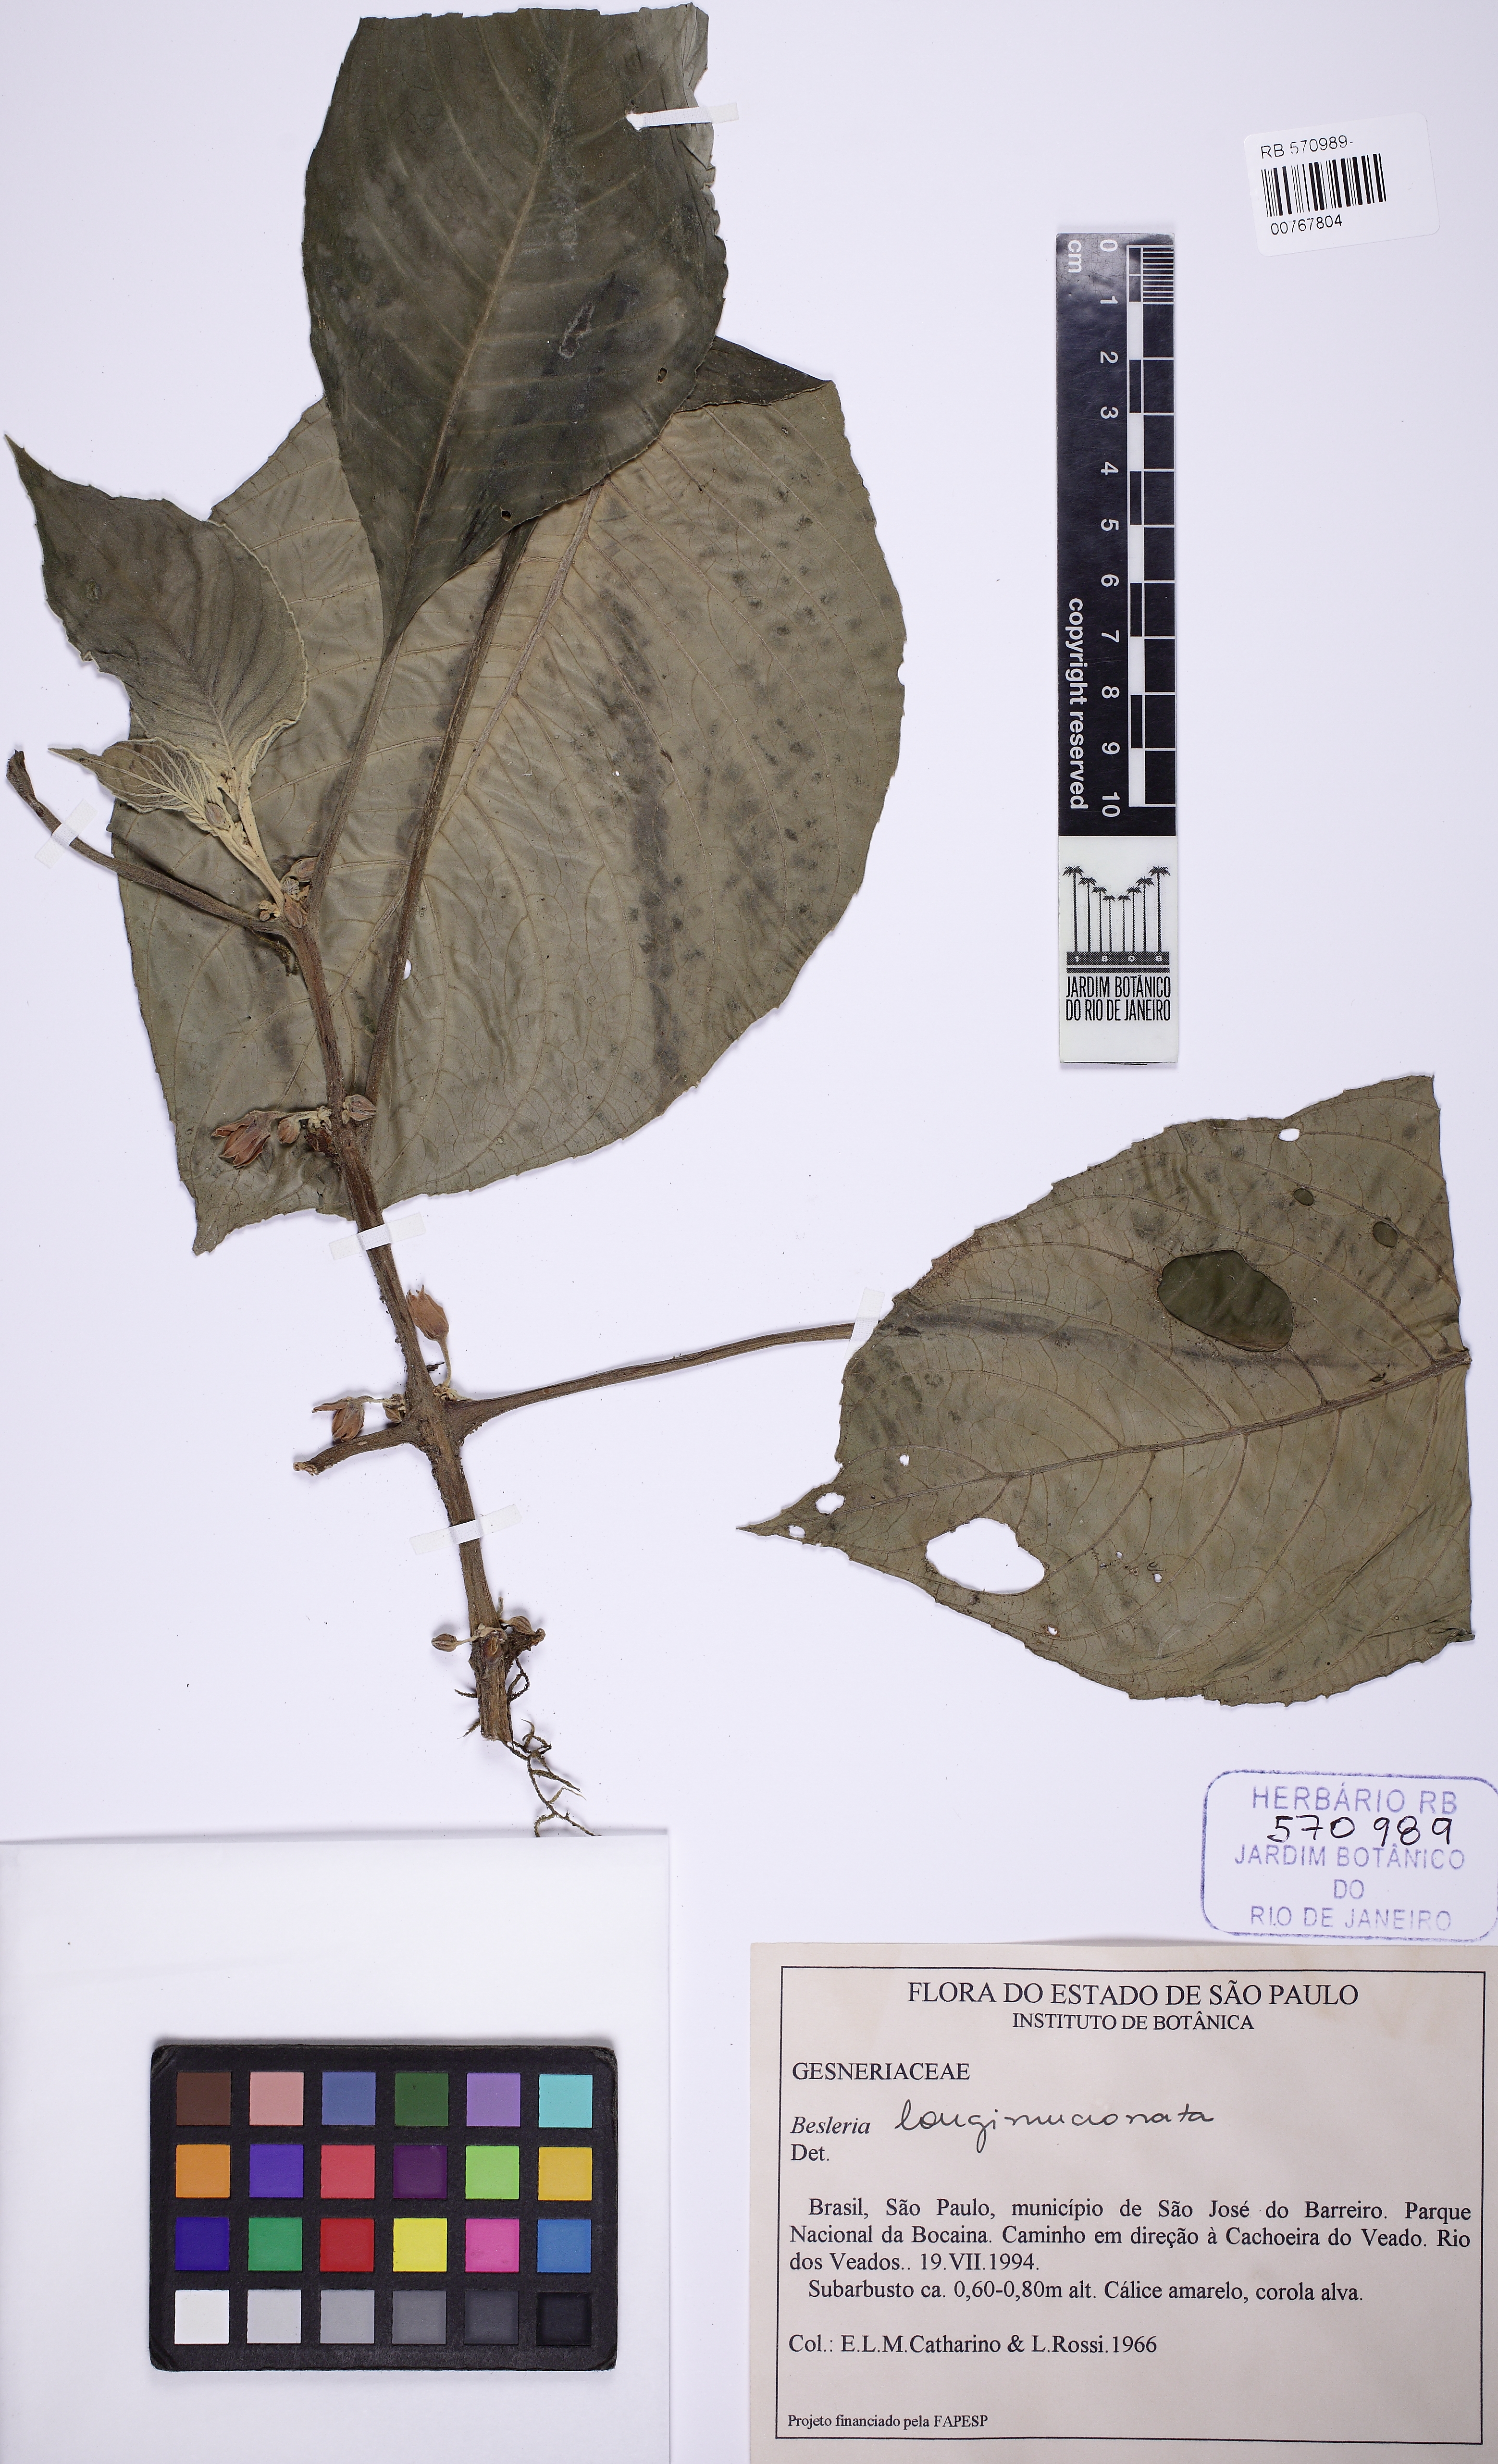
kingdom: Plantae
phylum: Tracheophyta
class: Magnoliopsida
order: Lamiales
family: Gesneriaceae
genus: Besleria
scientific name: Besleria longimucronata
